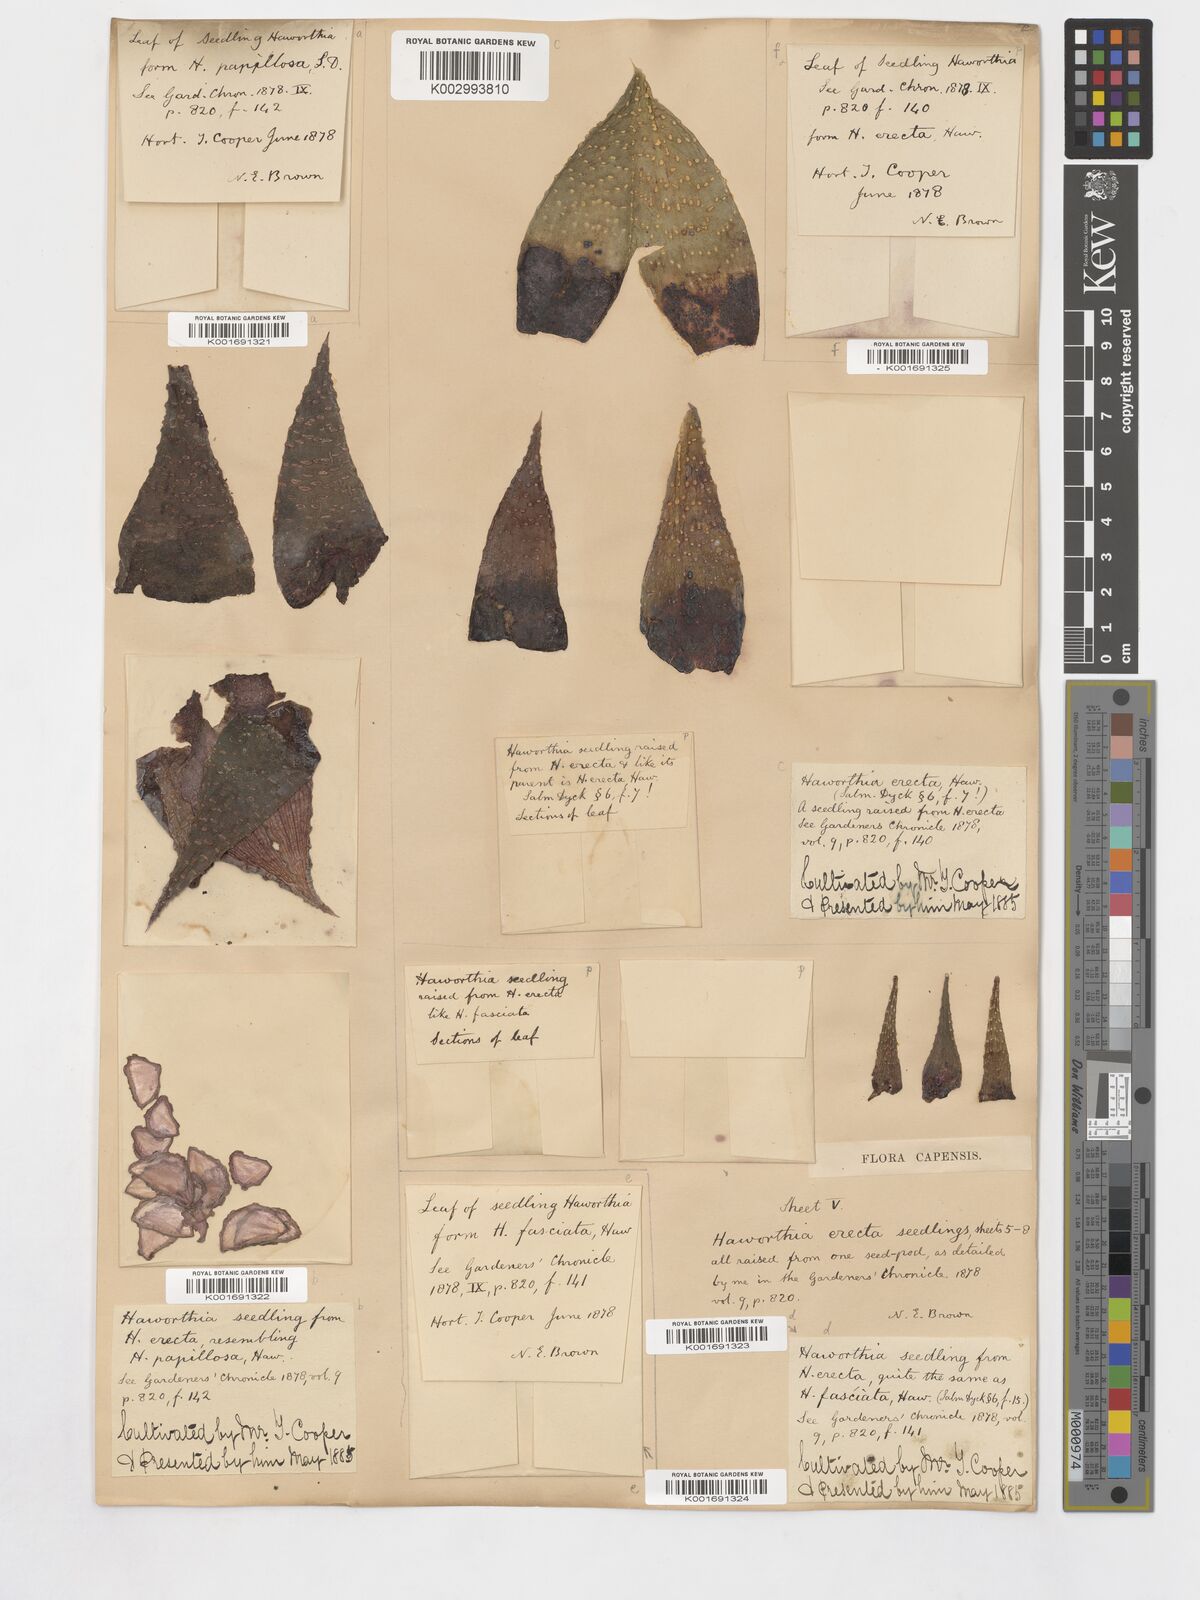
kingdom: Plantae
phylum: Tracheophyta
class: Liliopsida
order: Asparagales
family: Asphodelaceae
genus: Haworthia
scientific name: Haworthia herbacea
